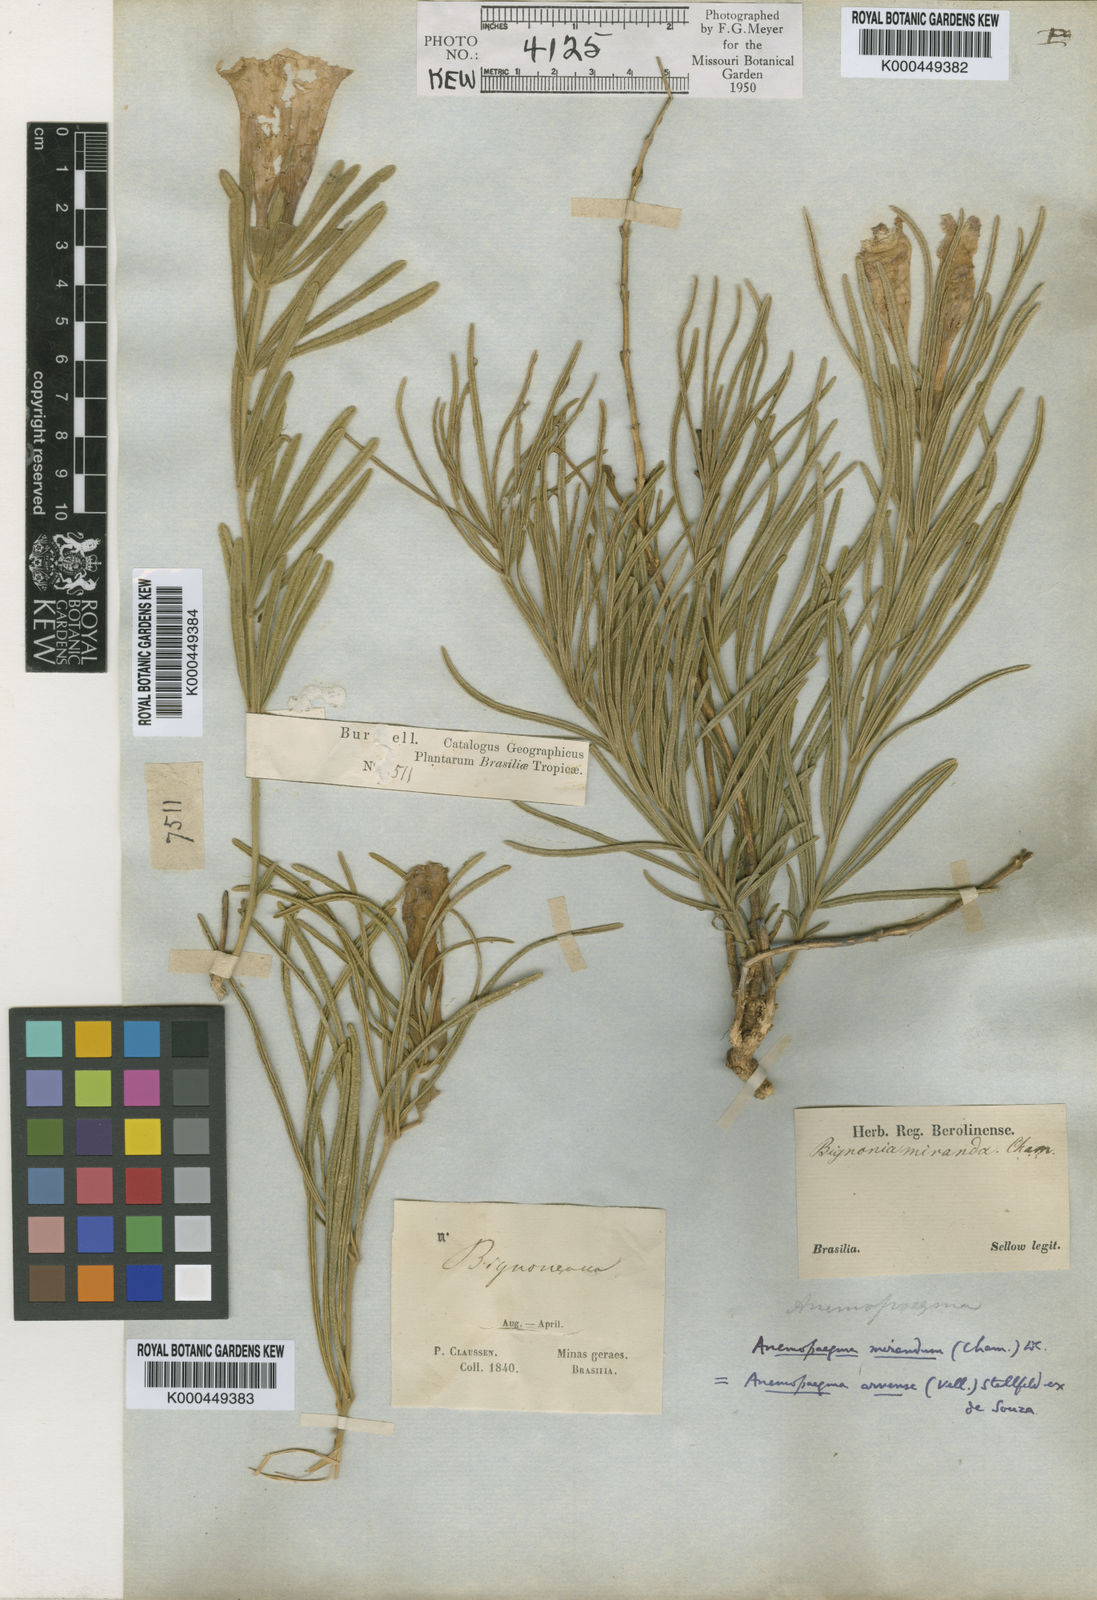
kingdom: Plantae
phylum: Tracheophyta
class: Magnoliopsida
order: Lamiales
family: Bignoniaceae
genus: Anemopaegma
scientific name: Anemopaegma arvense
